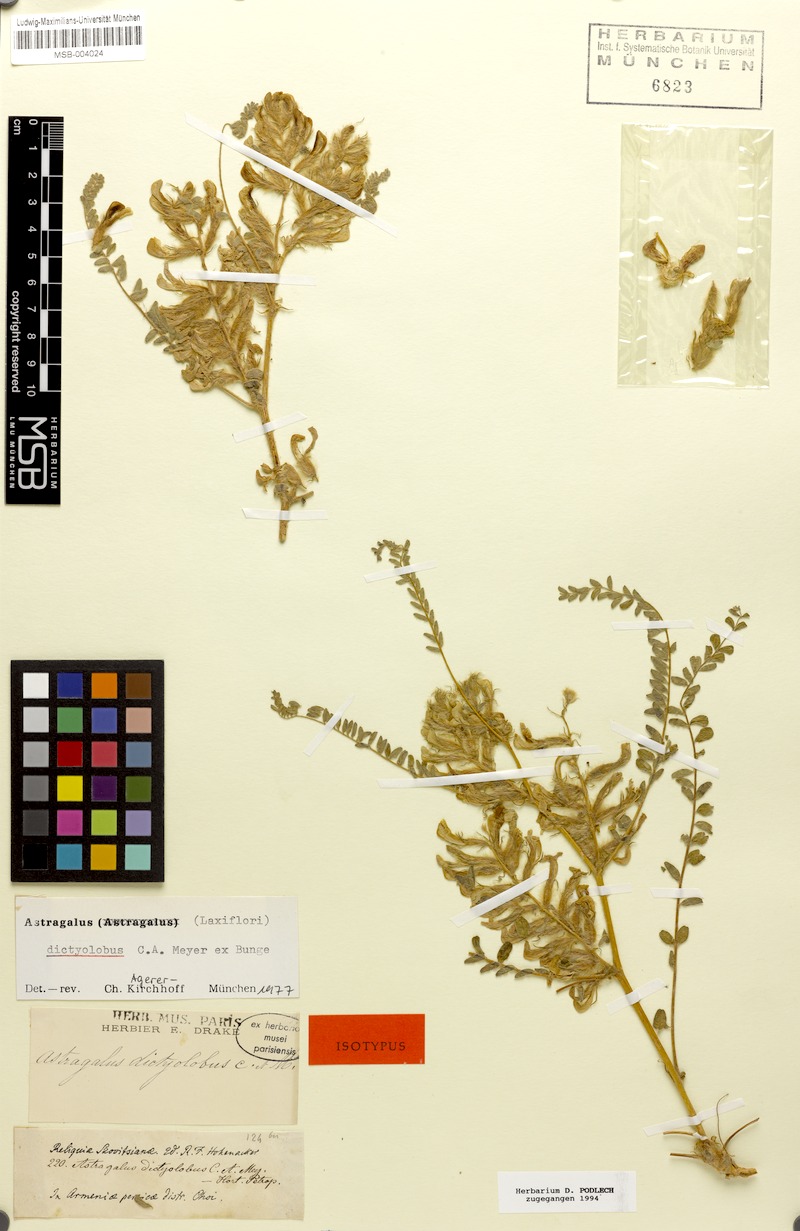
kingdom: Plantae
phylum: Tracheophyta
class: Magnoliopsida
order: Fabales
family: Fabaceae
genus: Astragalus
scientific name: Astragalus dictyolobus
